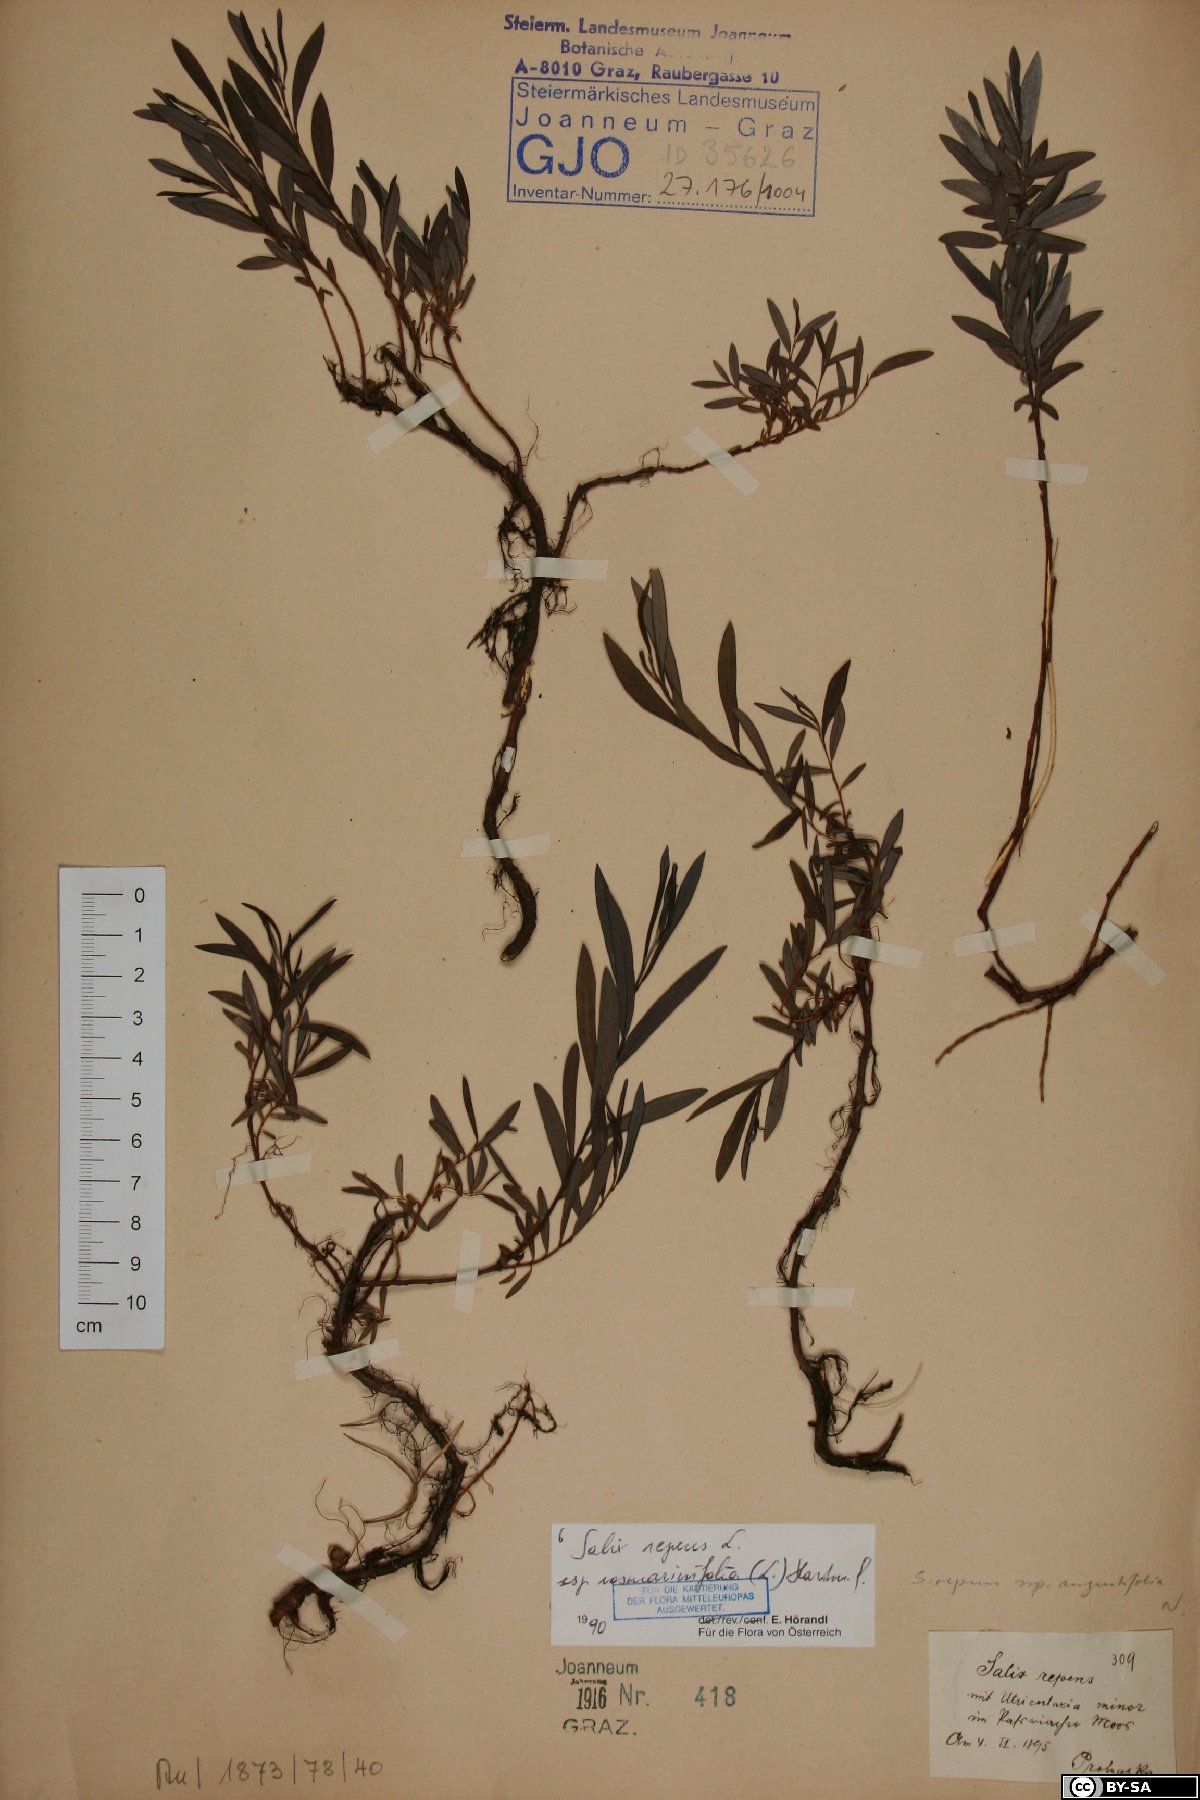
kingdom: Plantae
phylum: Tracheophyta
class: Magnoliopsida
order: Malpighiales
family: Salicaceae
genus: Salix
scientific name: Salix repens
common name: Creeping willow
